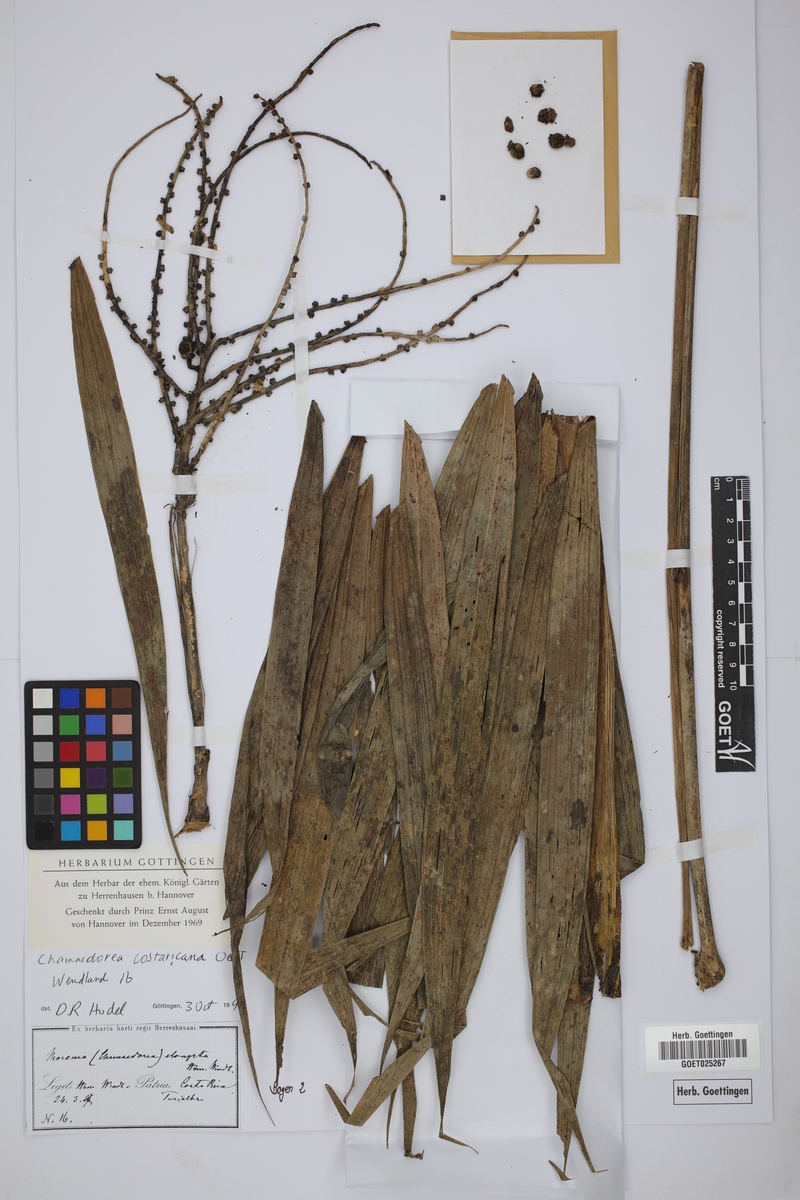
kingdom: Plantae
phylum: Tracheophyta
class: Liliopsida
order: Arecales
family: Arecaceae
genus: Chamaedorea
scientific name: Chamaedorea costaricana
